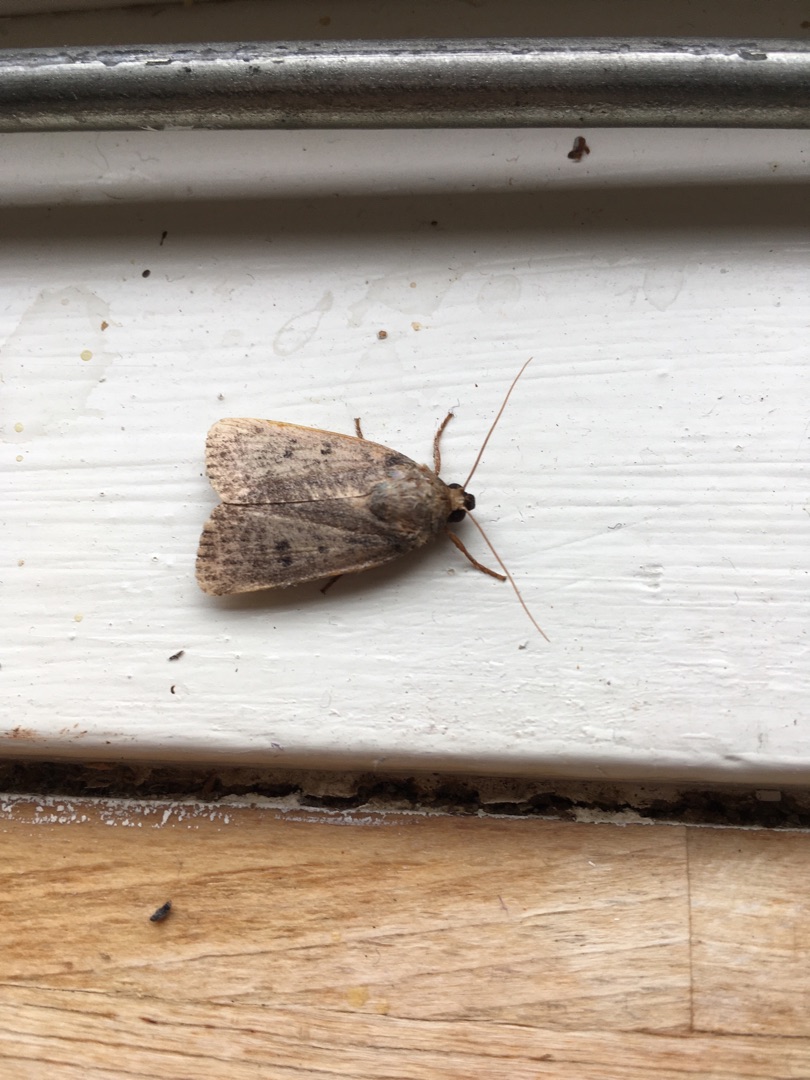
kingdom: Animalia
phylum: Arthropoda
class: Insecta
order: Lepidoptera
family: Noctuidae
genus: Amphipyra
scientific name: Amphipyra tragopoginis
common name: Blyantsugle
